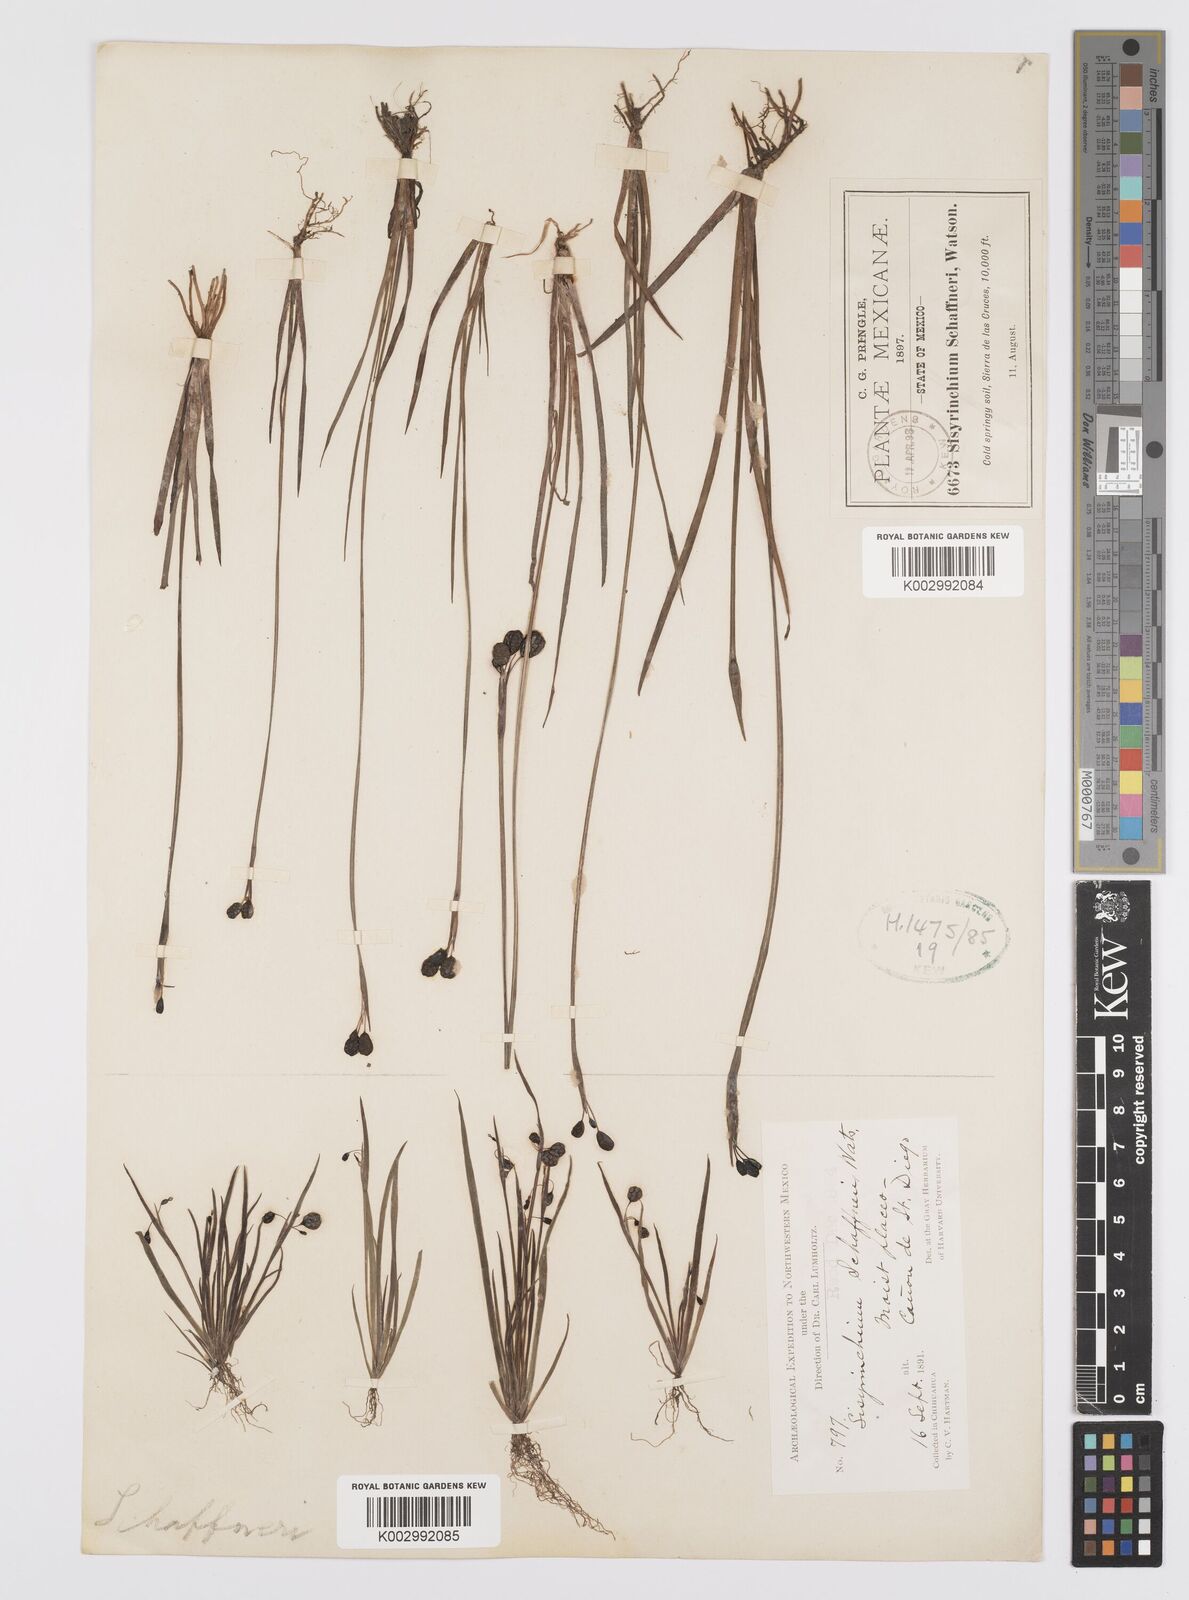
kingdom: Plantae
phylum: Tracheophyta
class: Liliopsida
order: Asparagales
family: Iridaceae
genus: Sisyrinchium
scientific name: Sisyrinchium schaffneri
